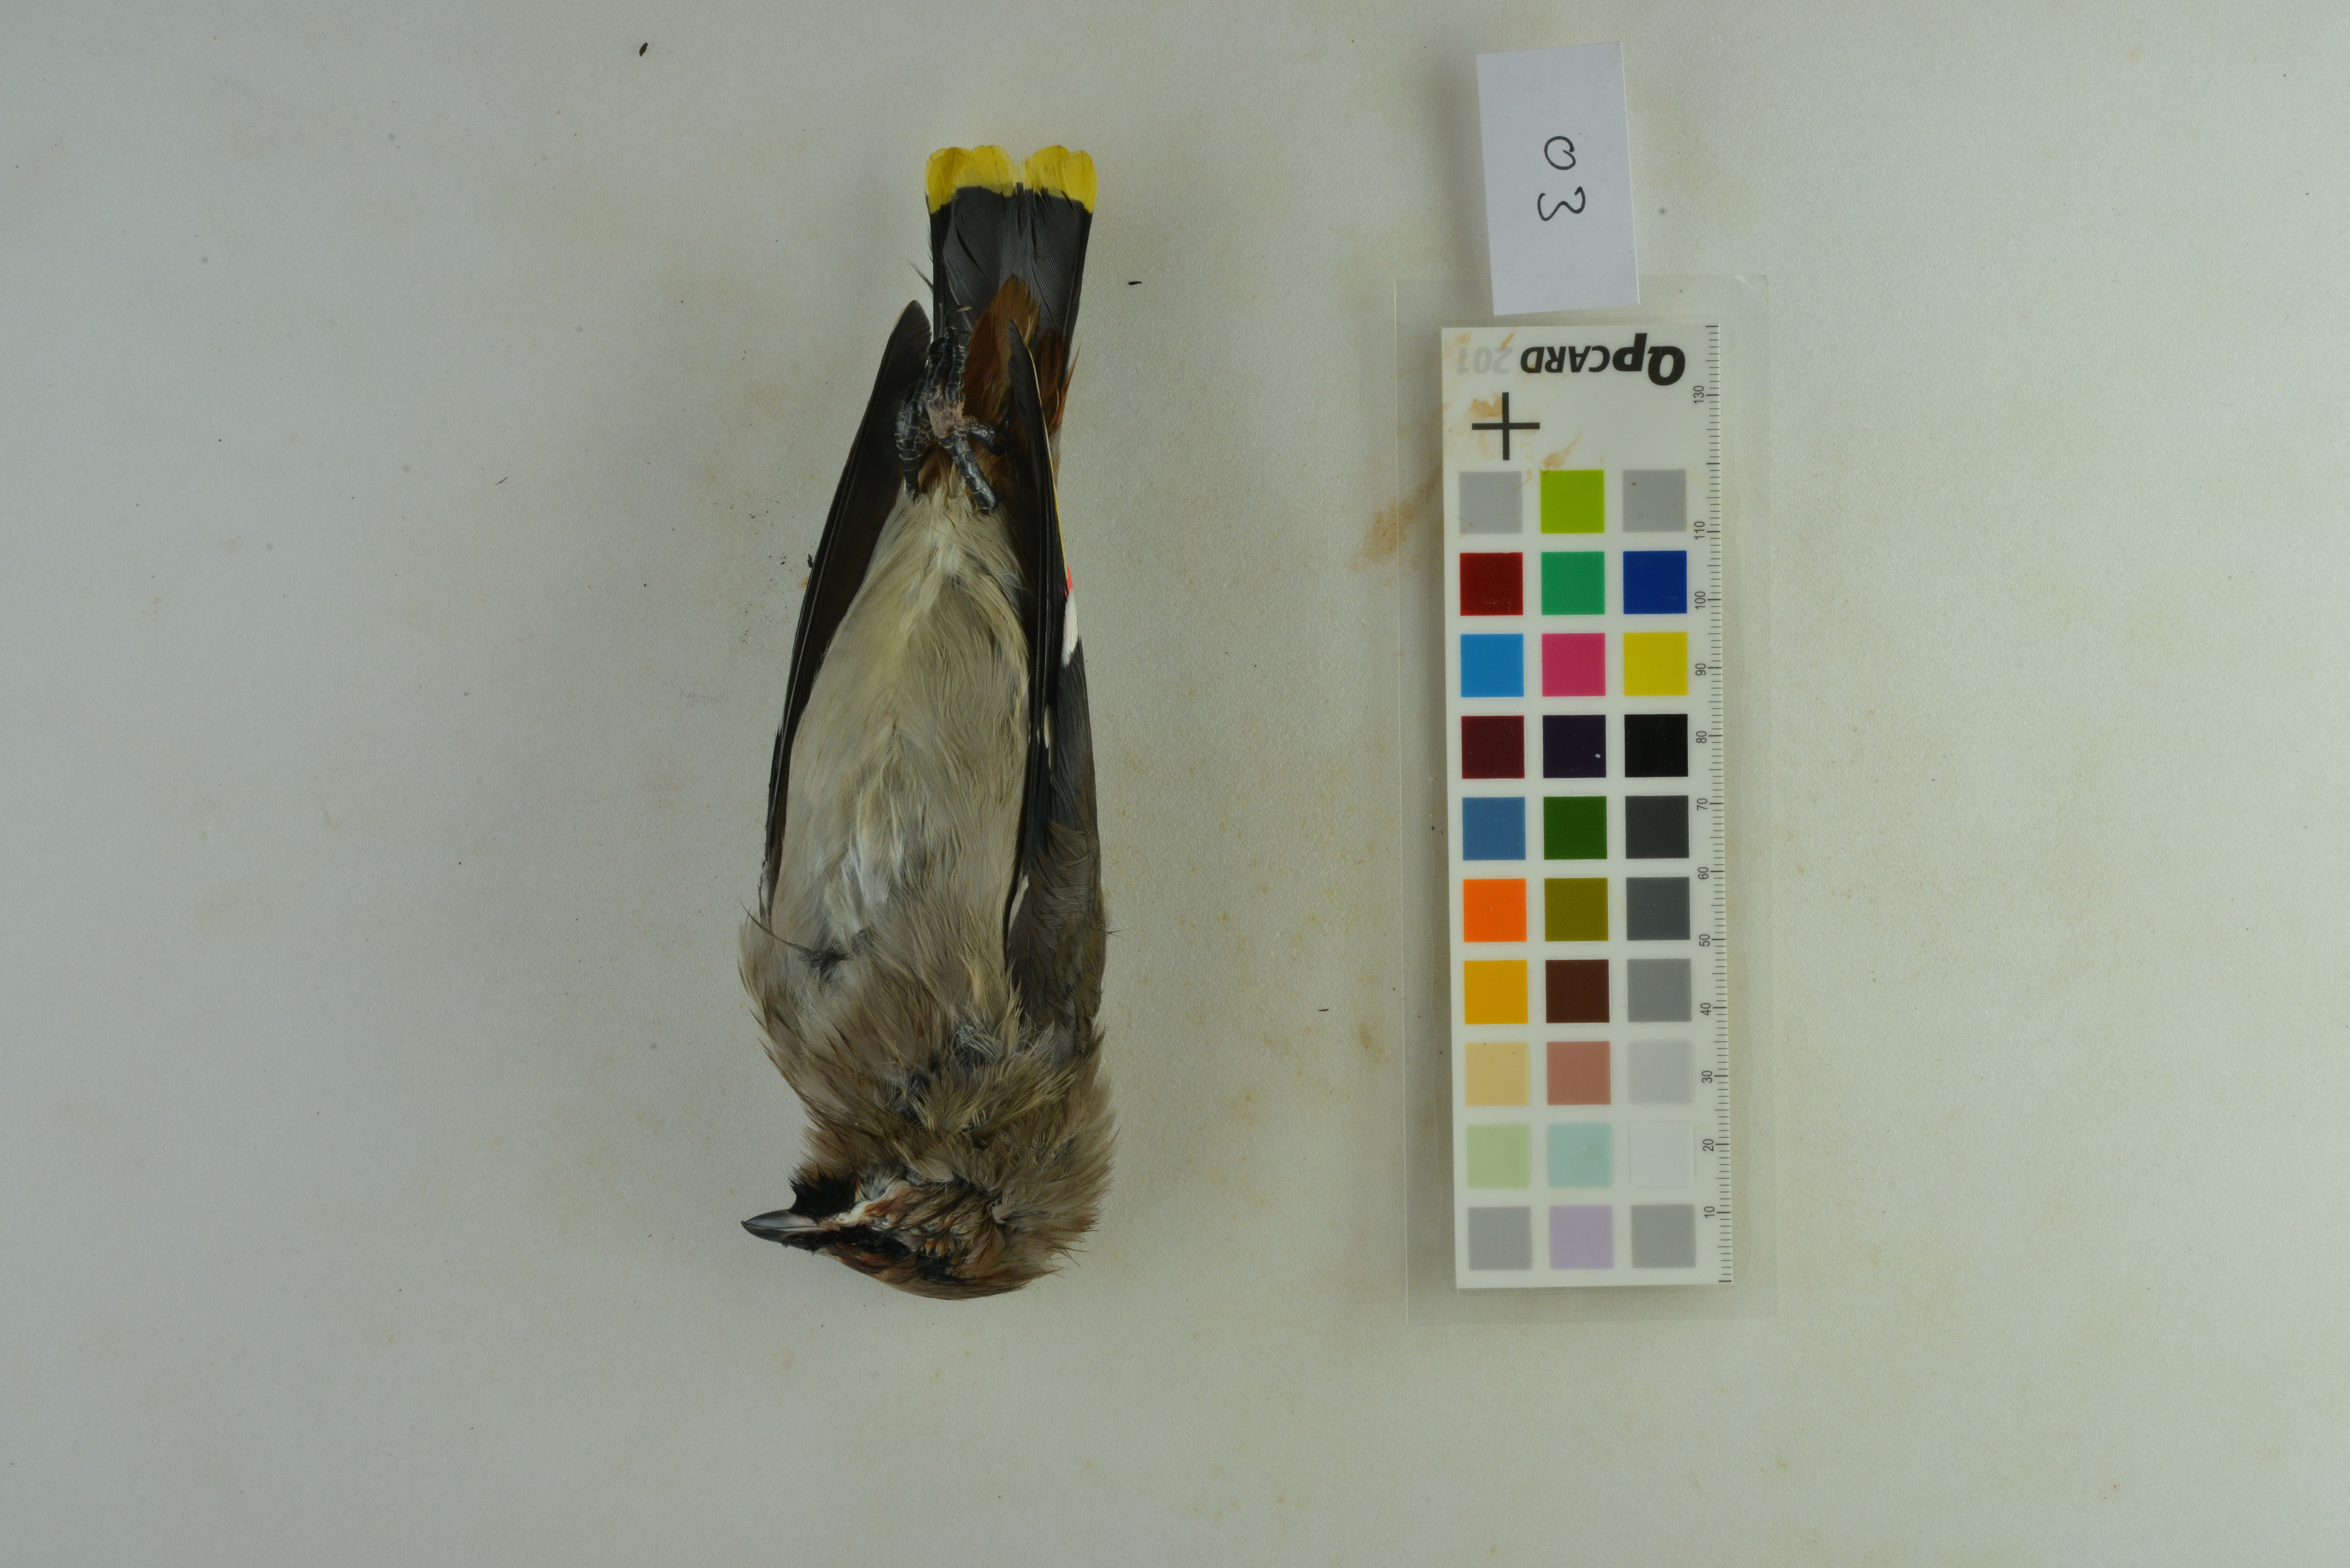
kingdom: Animalia
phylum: Chordata
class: Aves
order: Passeriformes
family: Bombycillidae
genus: Bombycilla
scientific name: Bombycilla garrulus
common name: Bohemian waxwing
